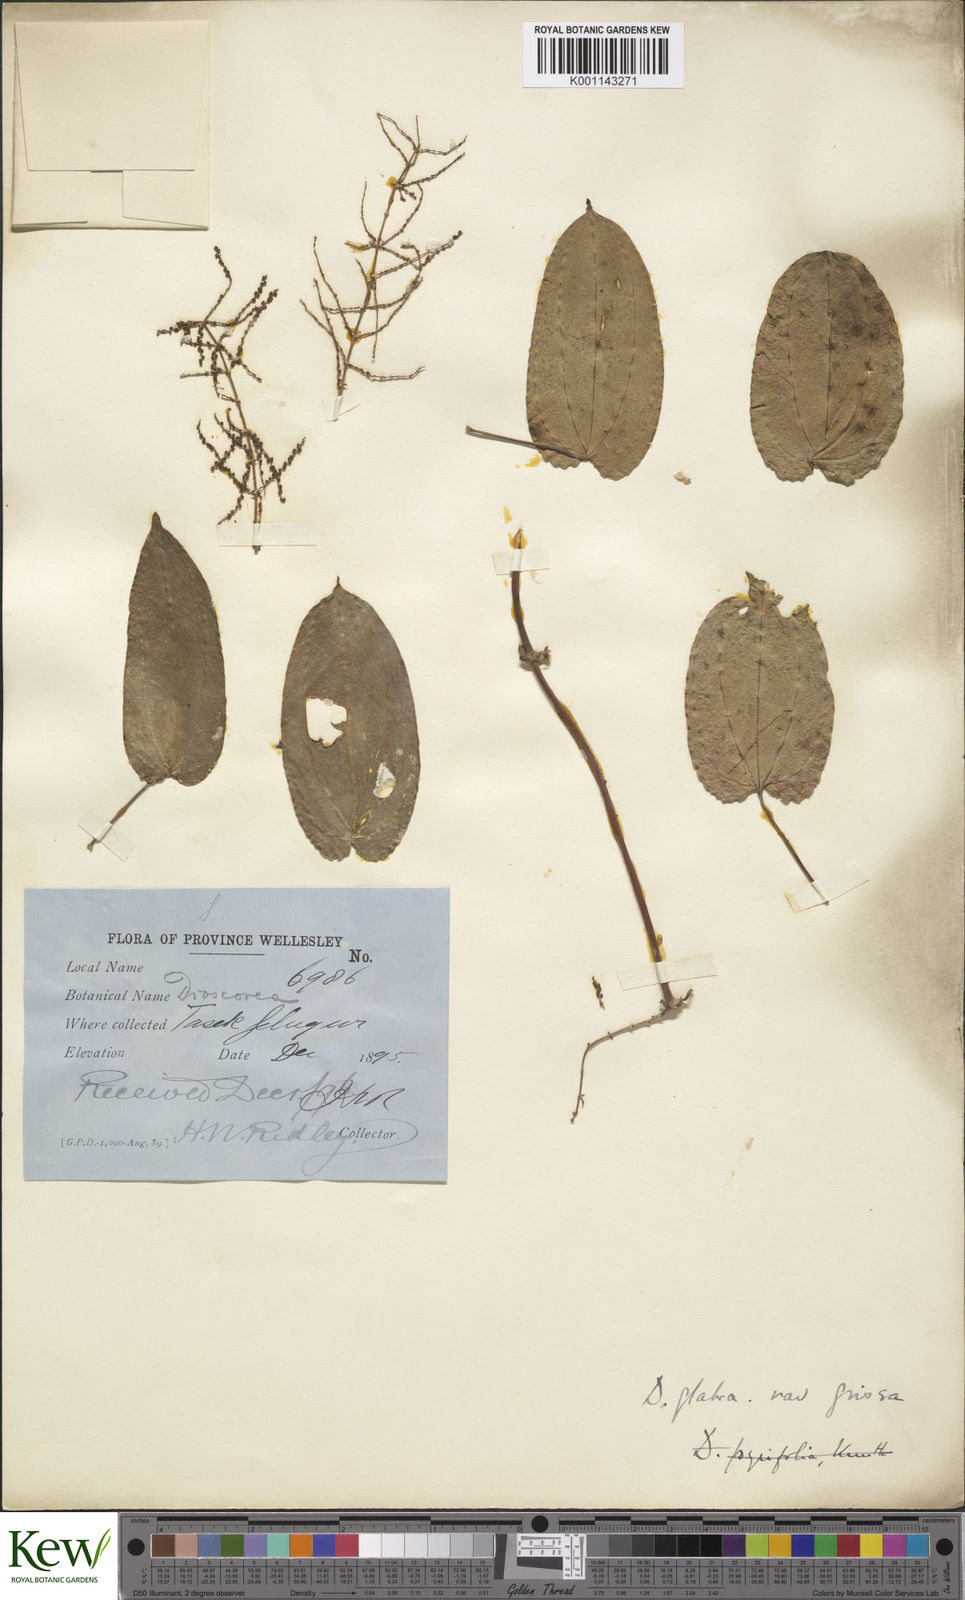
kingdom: Plantae
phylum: Tracheophyta
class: Liliopsida
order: Dioscoreales
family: Dioscoreaceae
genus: Dioscorea
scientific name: Dioscorea glabra
